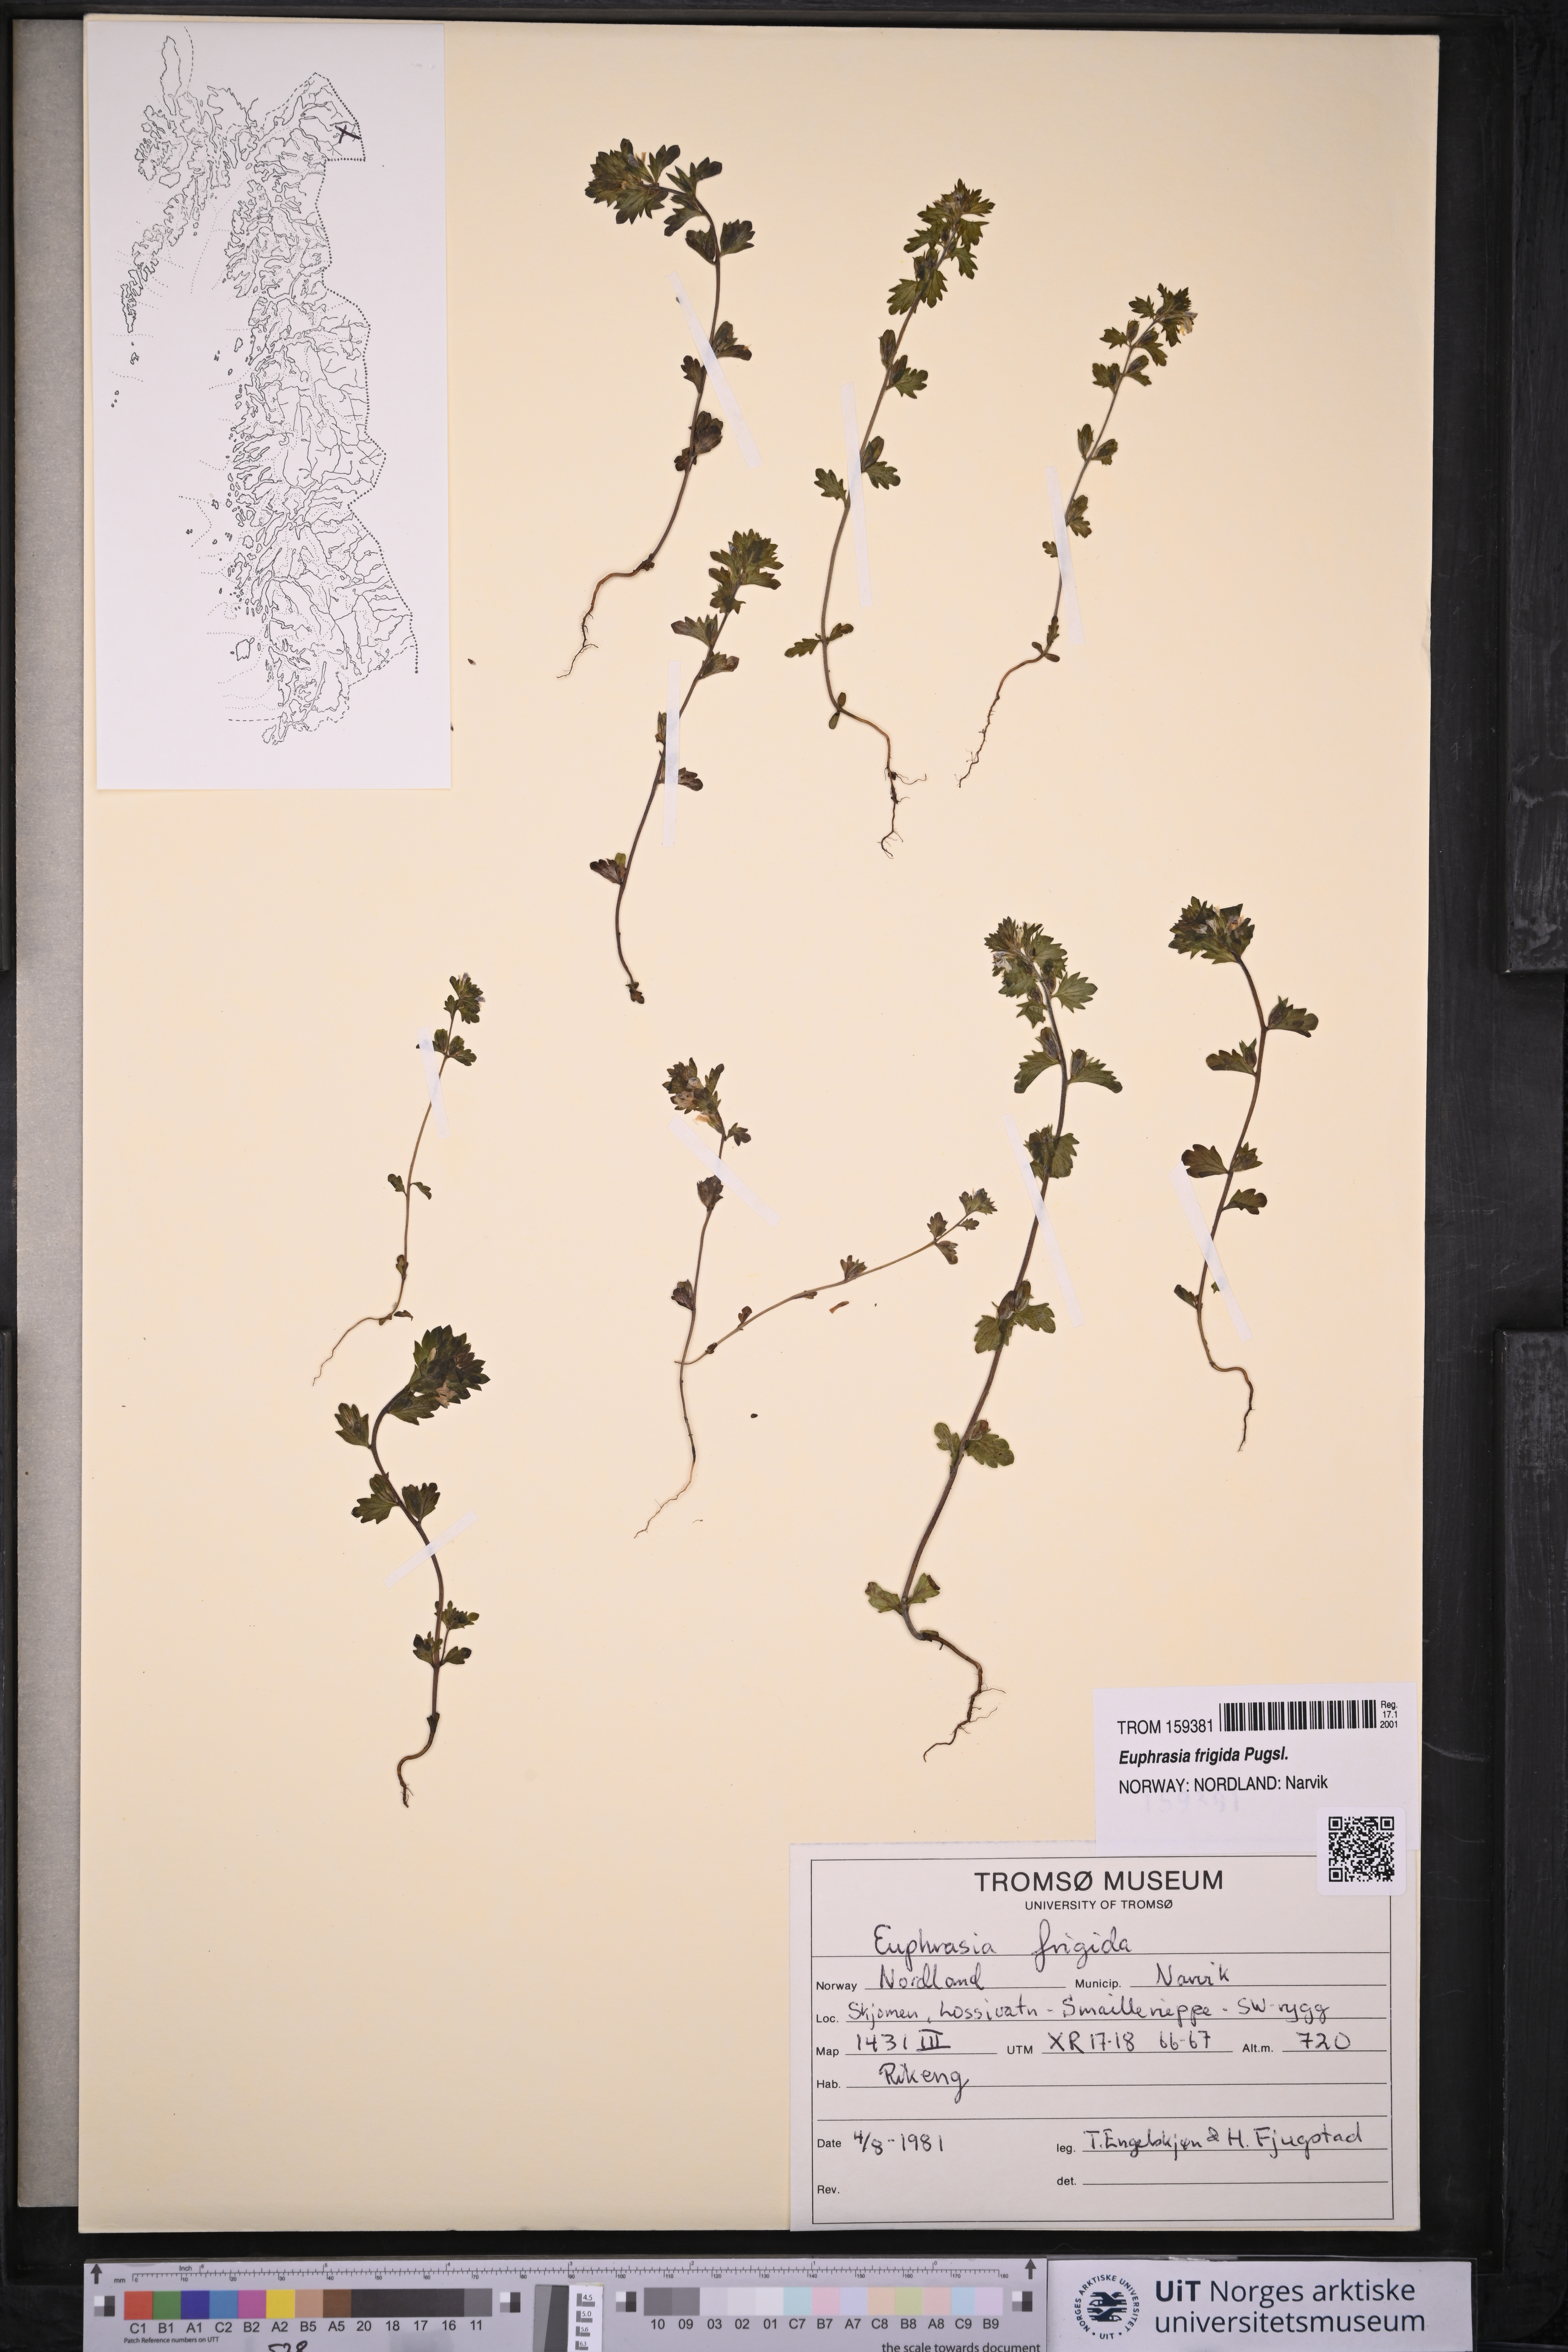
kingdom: Plantae
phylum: Tracheophyta
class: Magnoliopsida
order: Lamiales
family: Orobanchaceae
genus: Euphrasia
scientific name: Euphrasia frigida
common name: An eyebright
